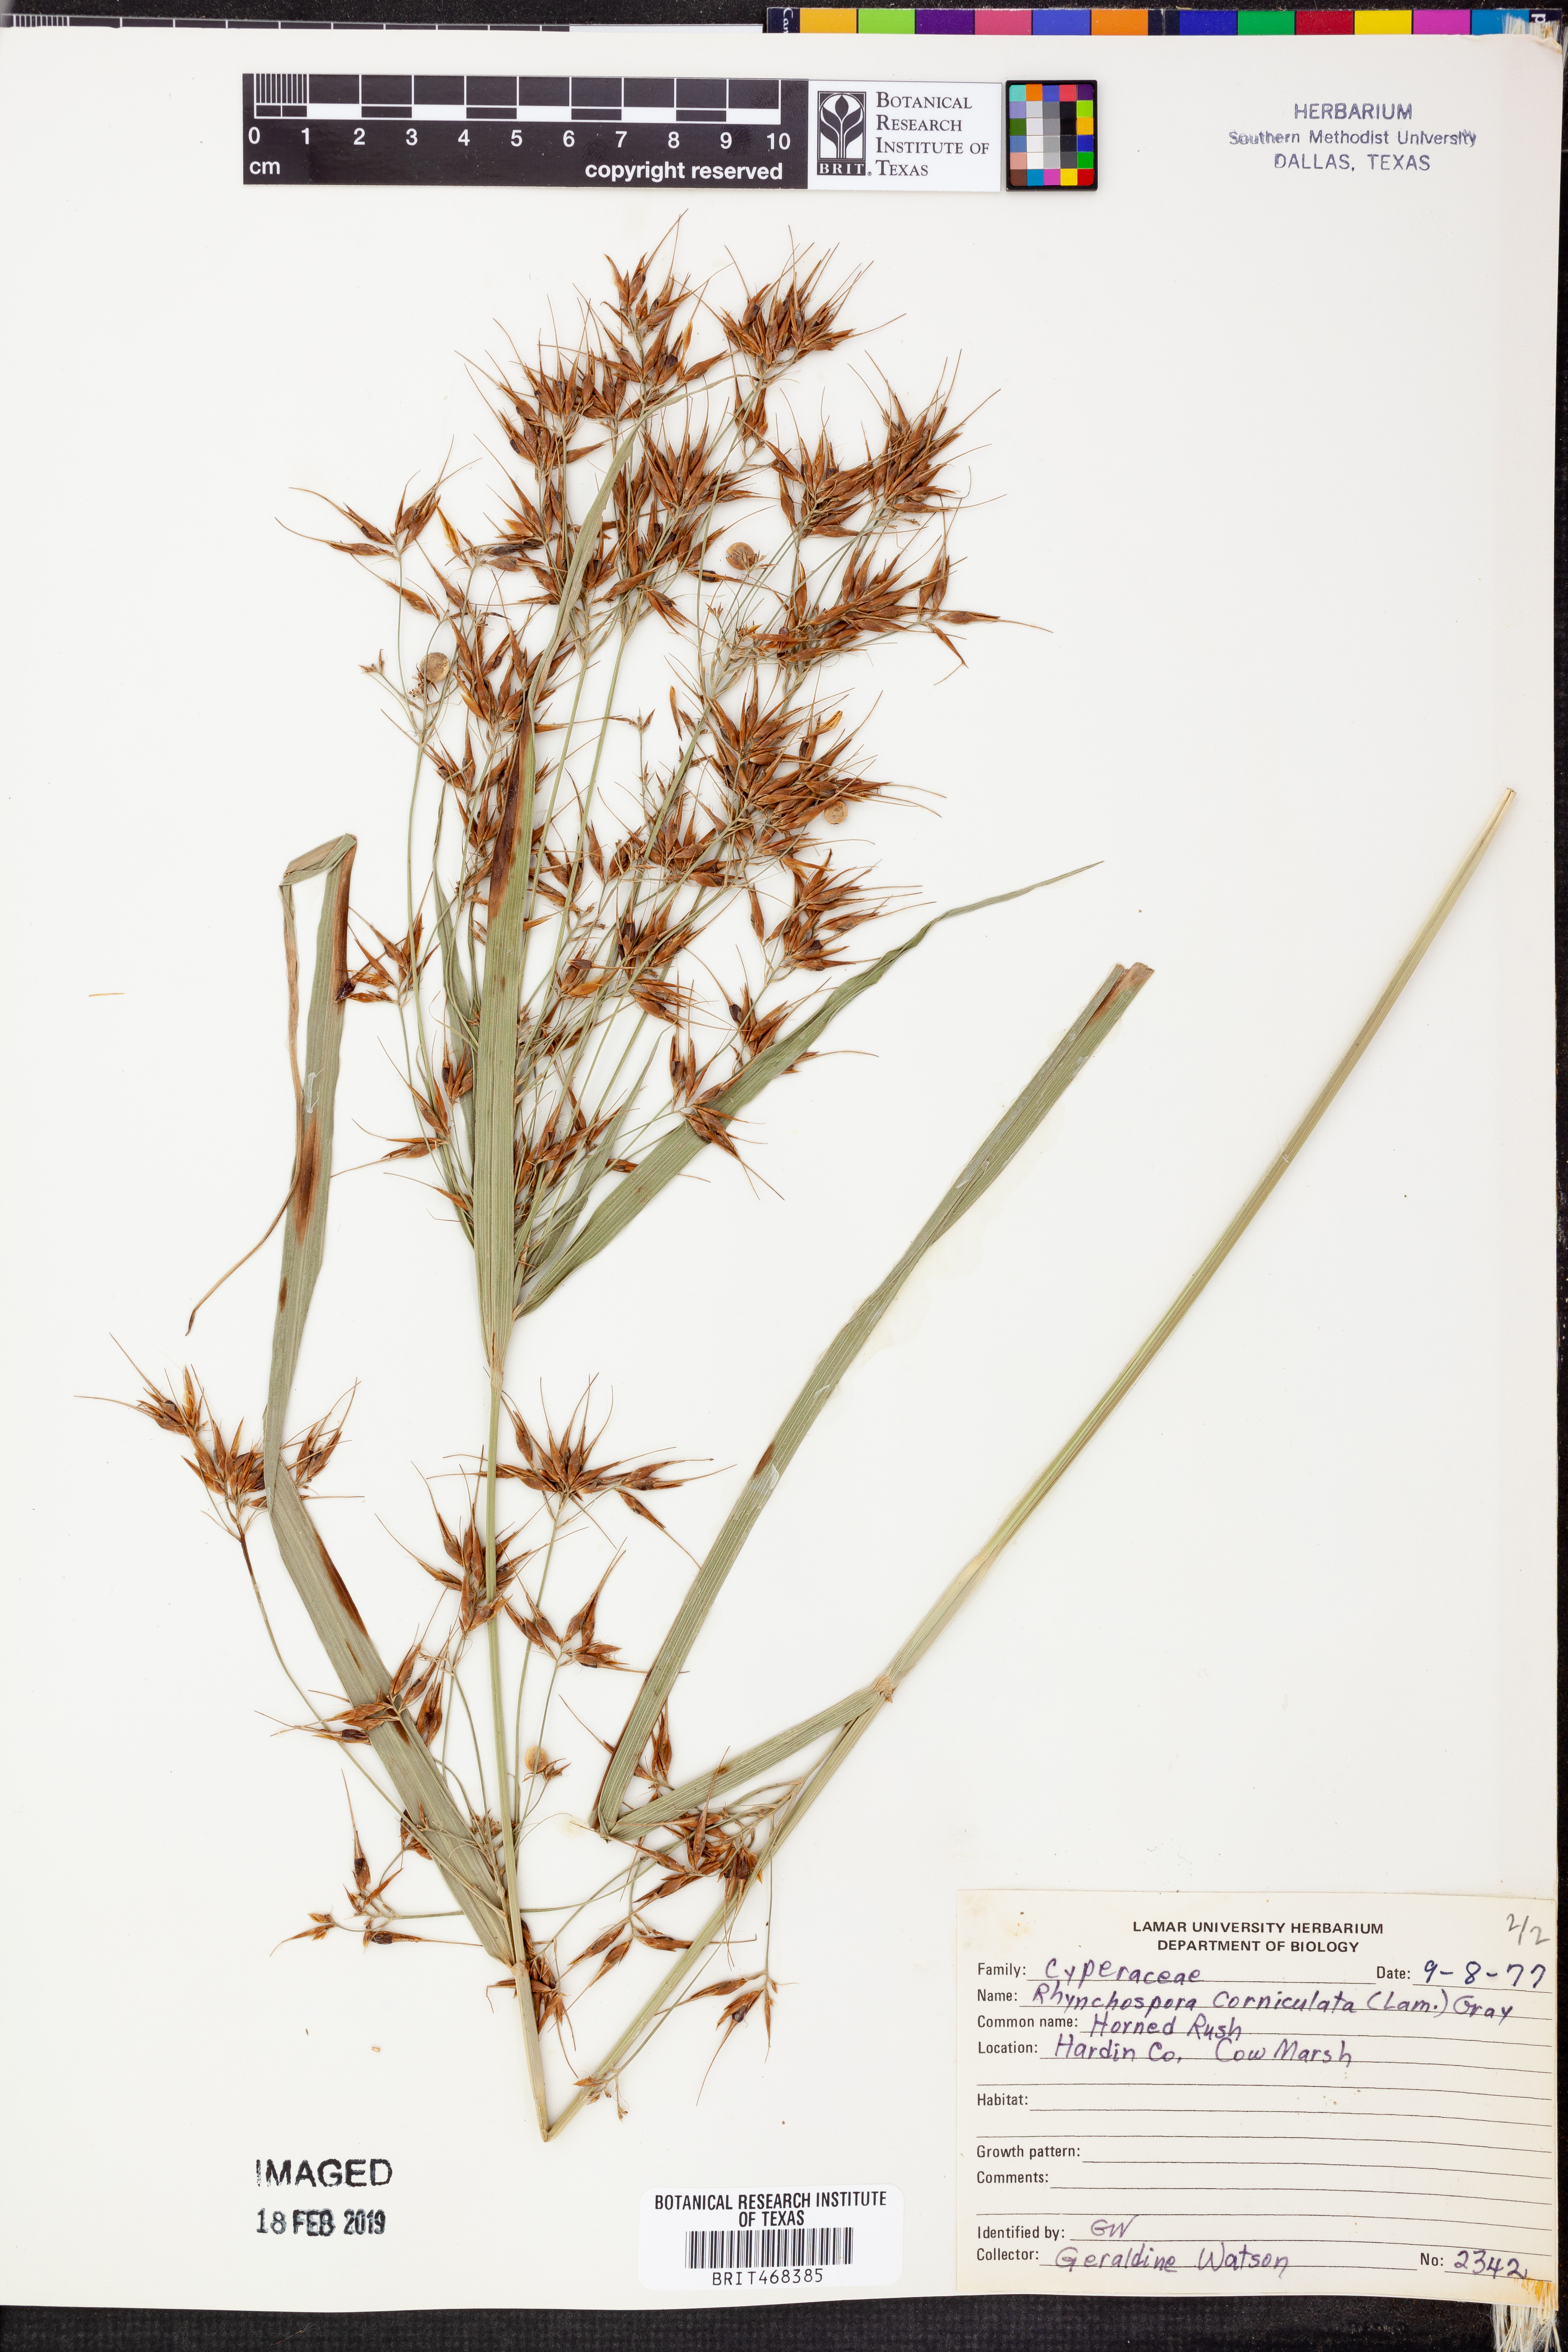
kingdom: Plantae
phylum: Tracheophyta
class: Liliopsida
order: Poales
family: Cyperaceae
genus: Rhynchospora
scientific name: Rhynchospora corniculata
